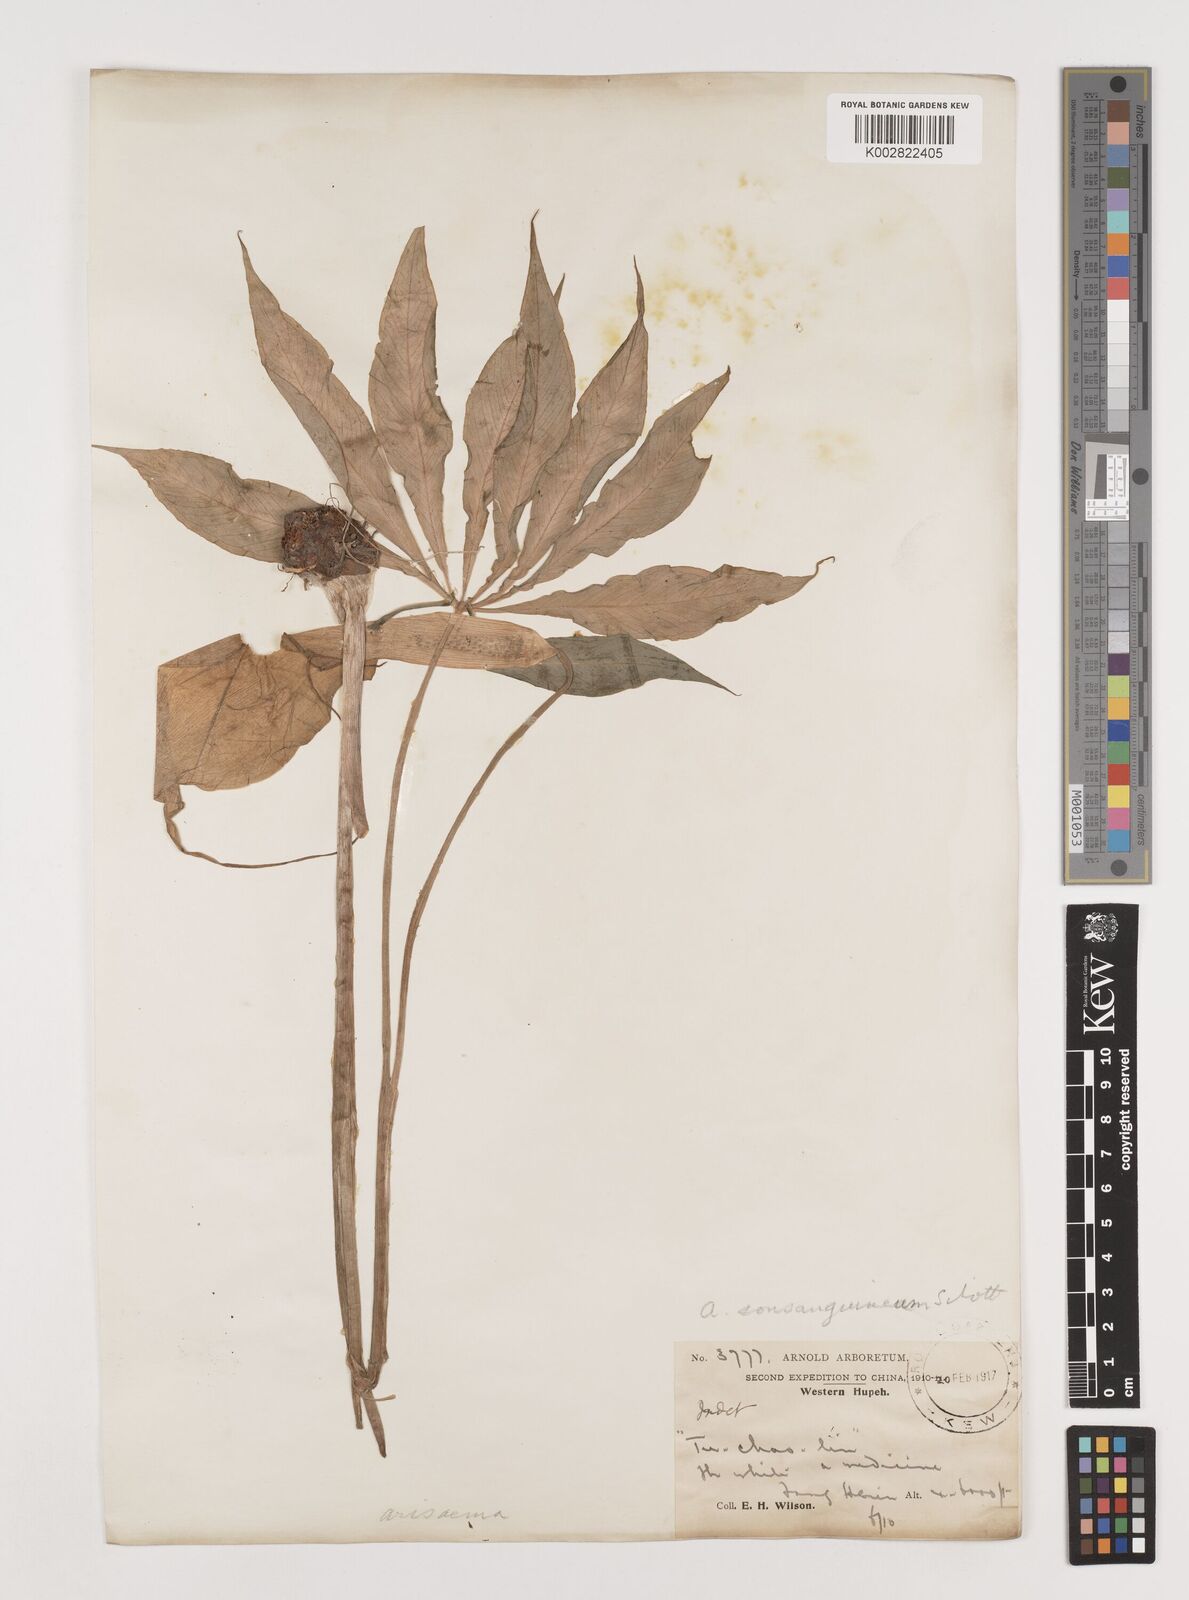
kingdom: Plantae
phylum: Tracheophyta
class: Liliopsida
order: Alismatales
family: Araceae
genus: Arisaema
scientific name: Arisaema erubescens
